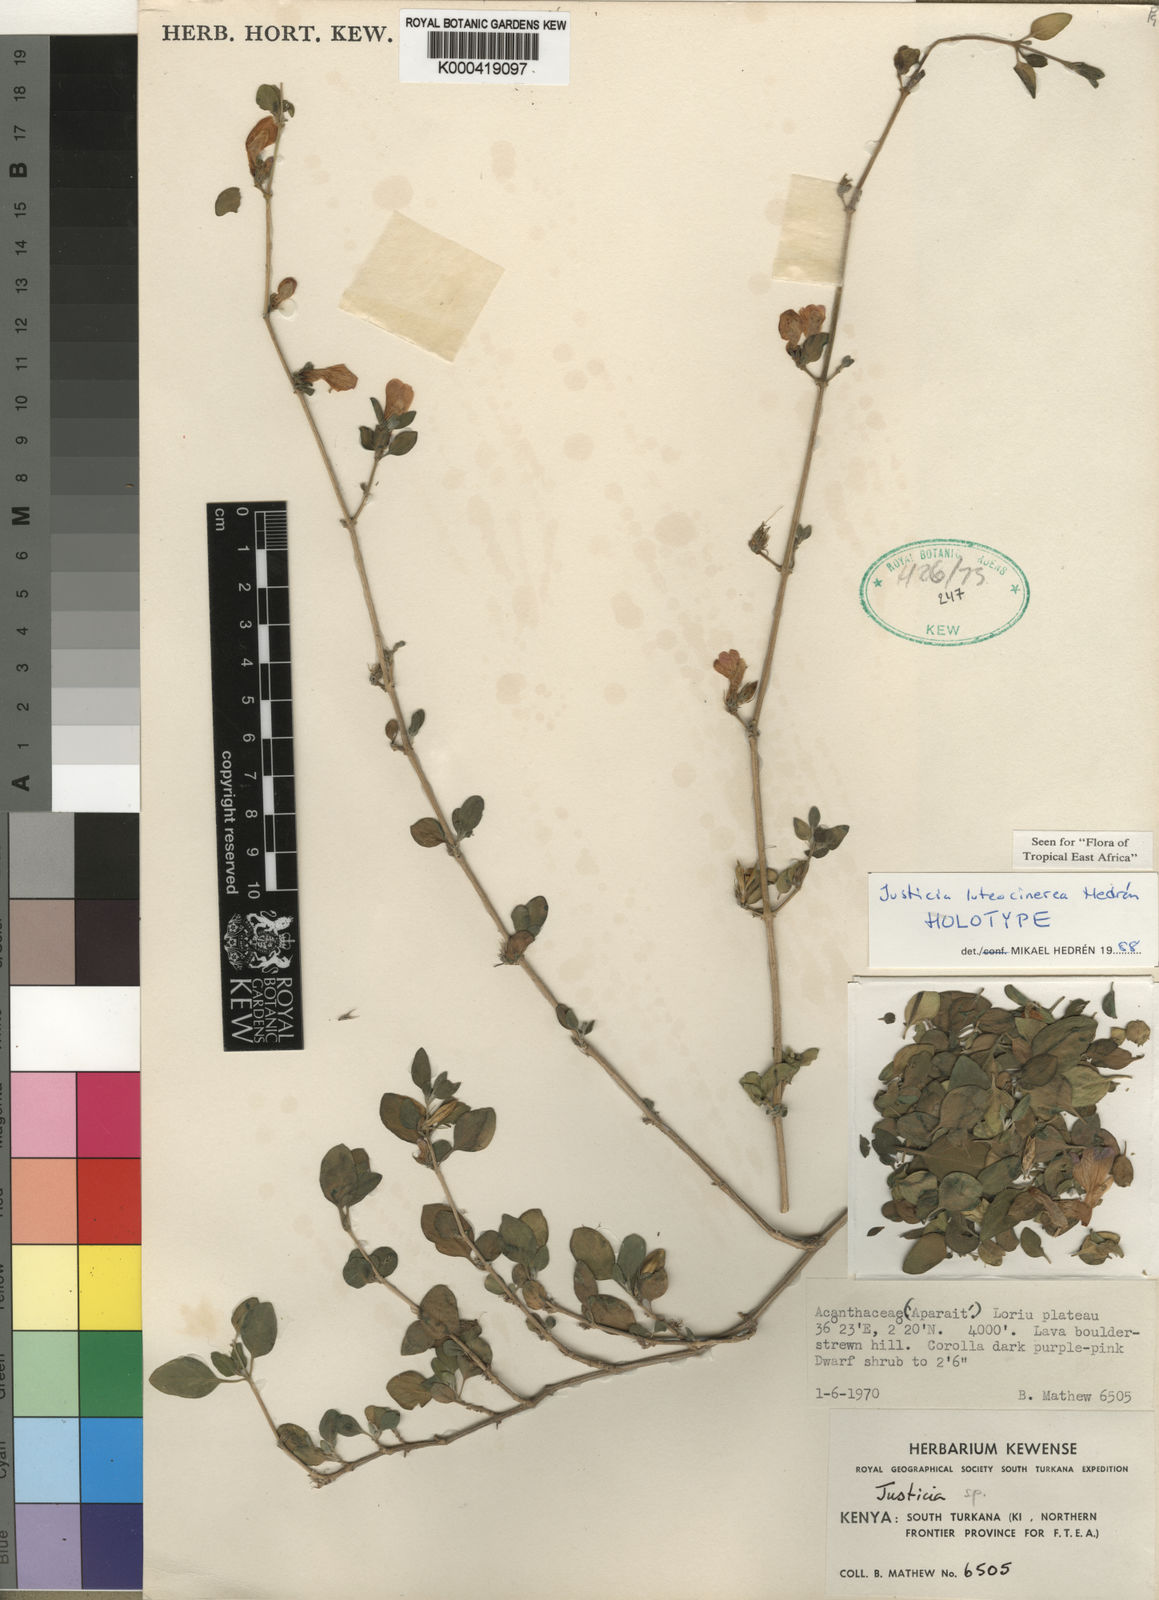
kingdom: Plantae
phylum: Tracheophyta
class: Magnoliopsida
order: Lamiales
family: Acanthaceae
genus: Justicia
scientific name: Justicia
